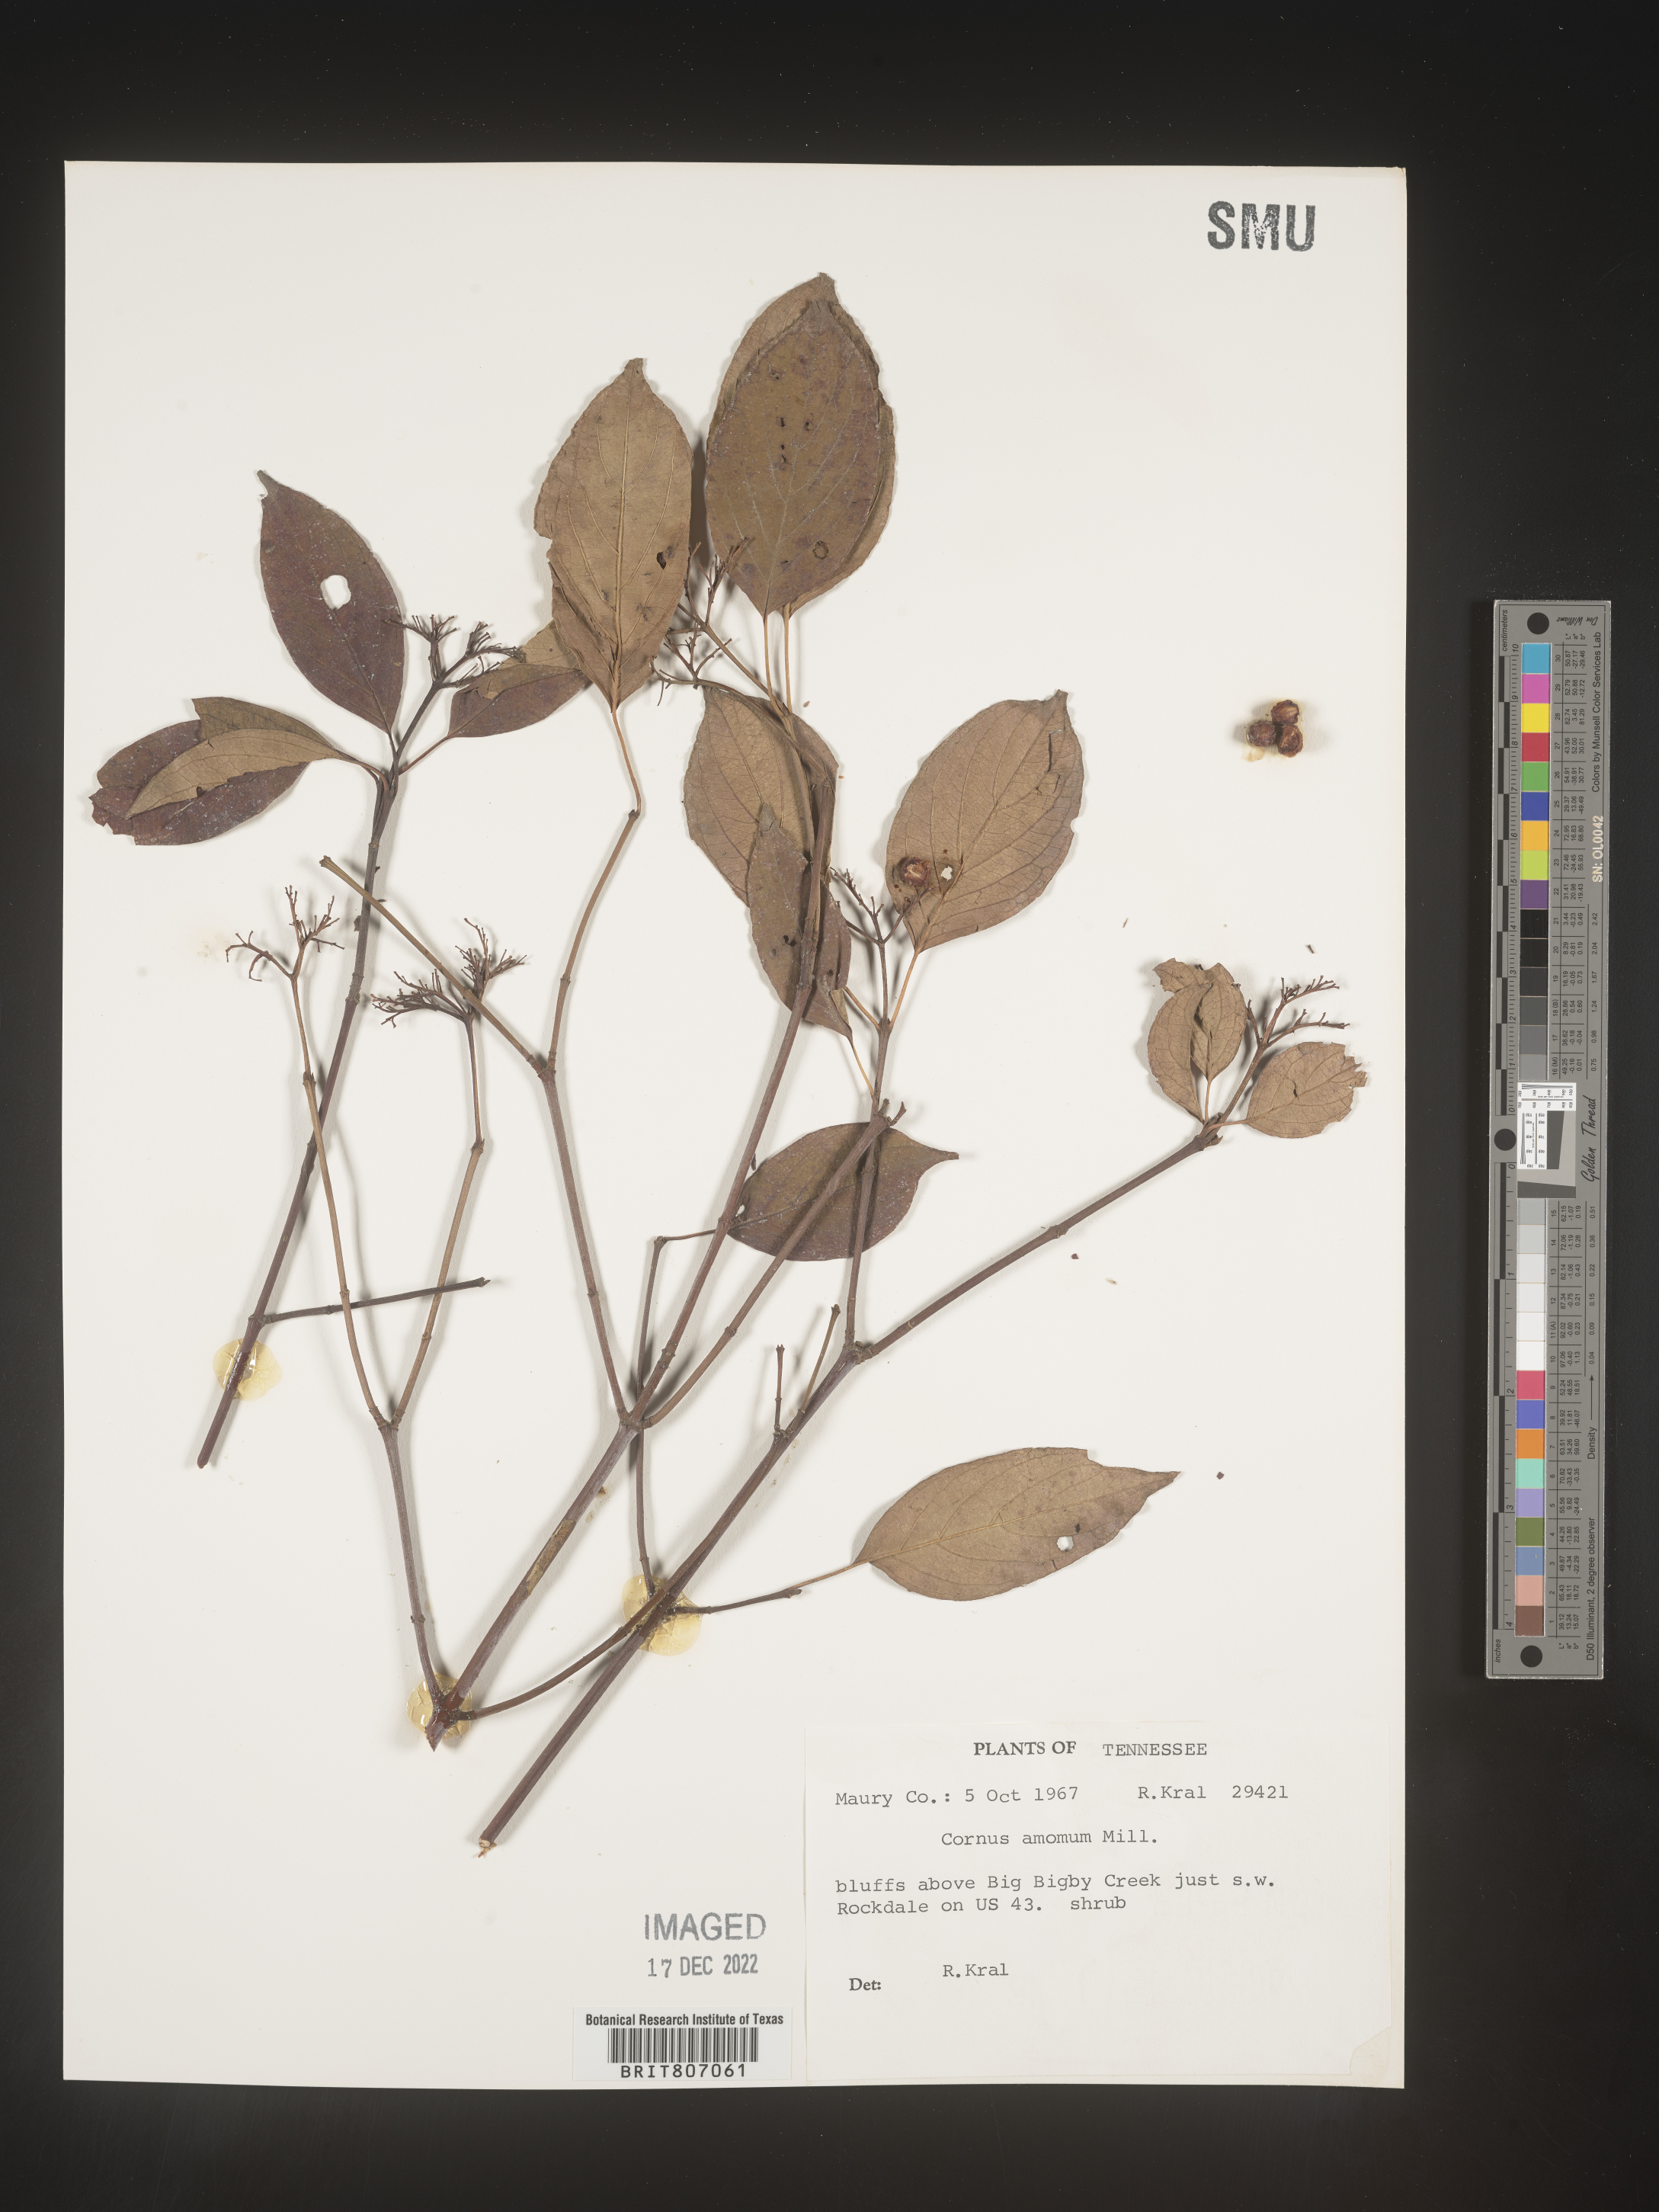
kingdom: Plantae
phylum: Tracheophyta
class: Magnoliopsida
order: Cornales
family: Cornaceae
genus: Cornus
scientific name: Cornus amomum
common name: Silky dogwood
